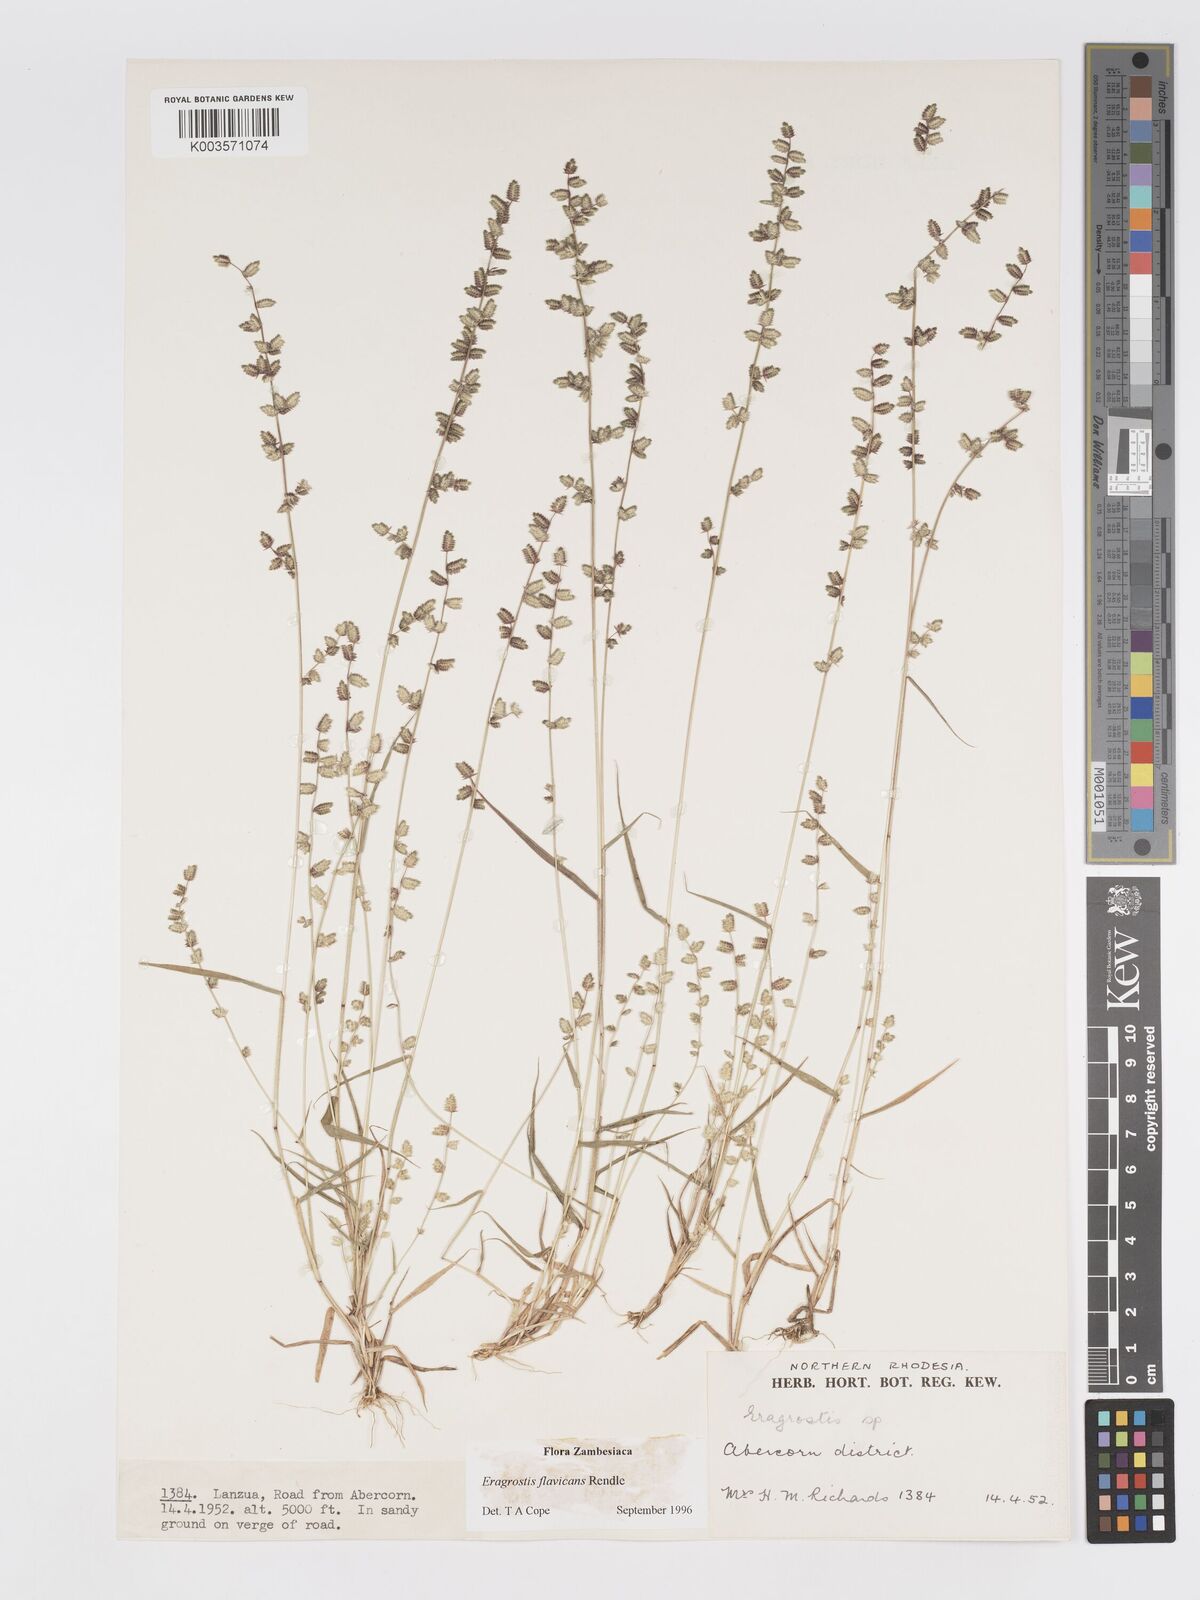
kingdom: Plantae
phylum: Tracheophyta
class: Liliopsida
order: Poales
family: Poaceae
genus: Eragrostis
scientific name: Eragrostis flavicans
